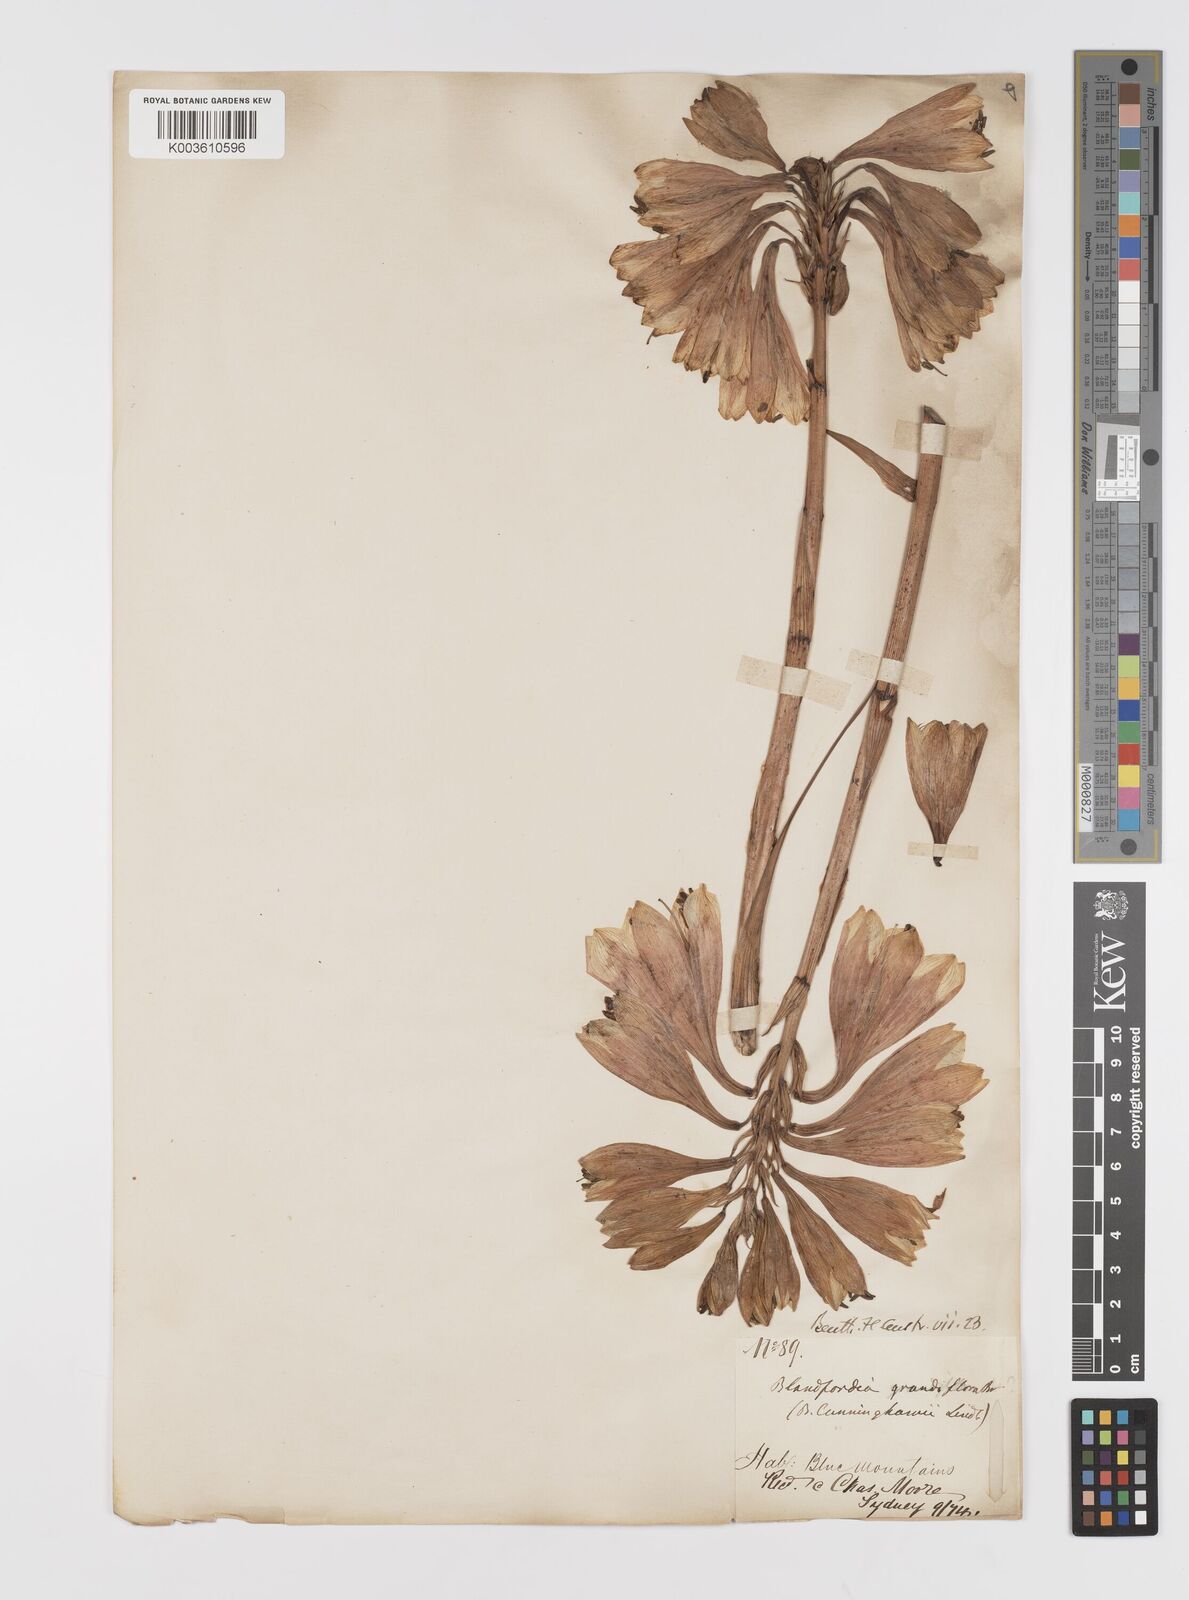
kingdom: Plantae
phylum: Tracheophyta
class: Liliopsida
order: Asparagales
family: Blandfordiaceae
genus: Blandfordia
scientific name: Blandfordia cunninghamii
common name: Christmas-bell
